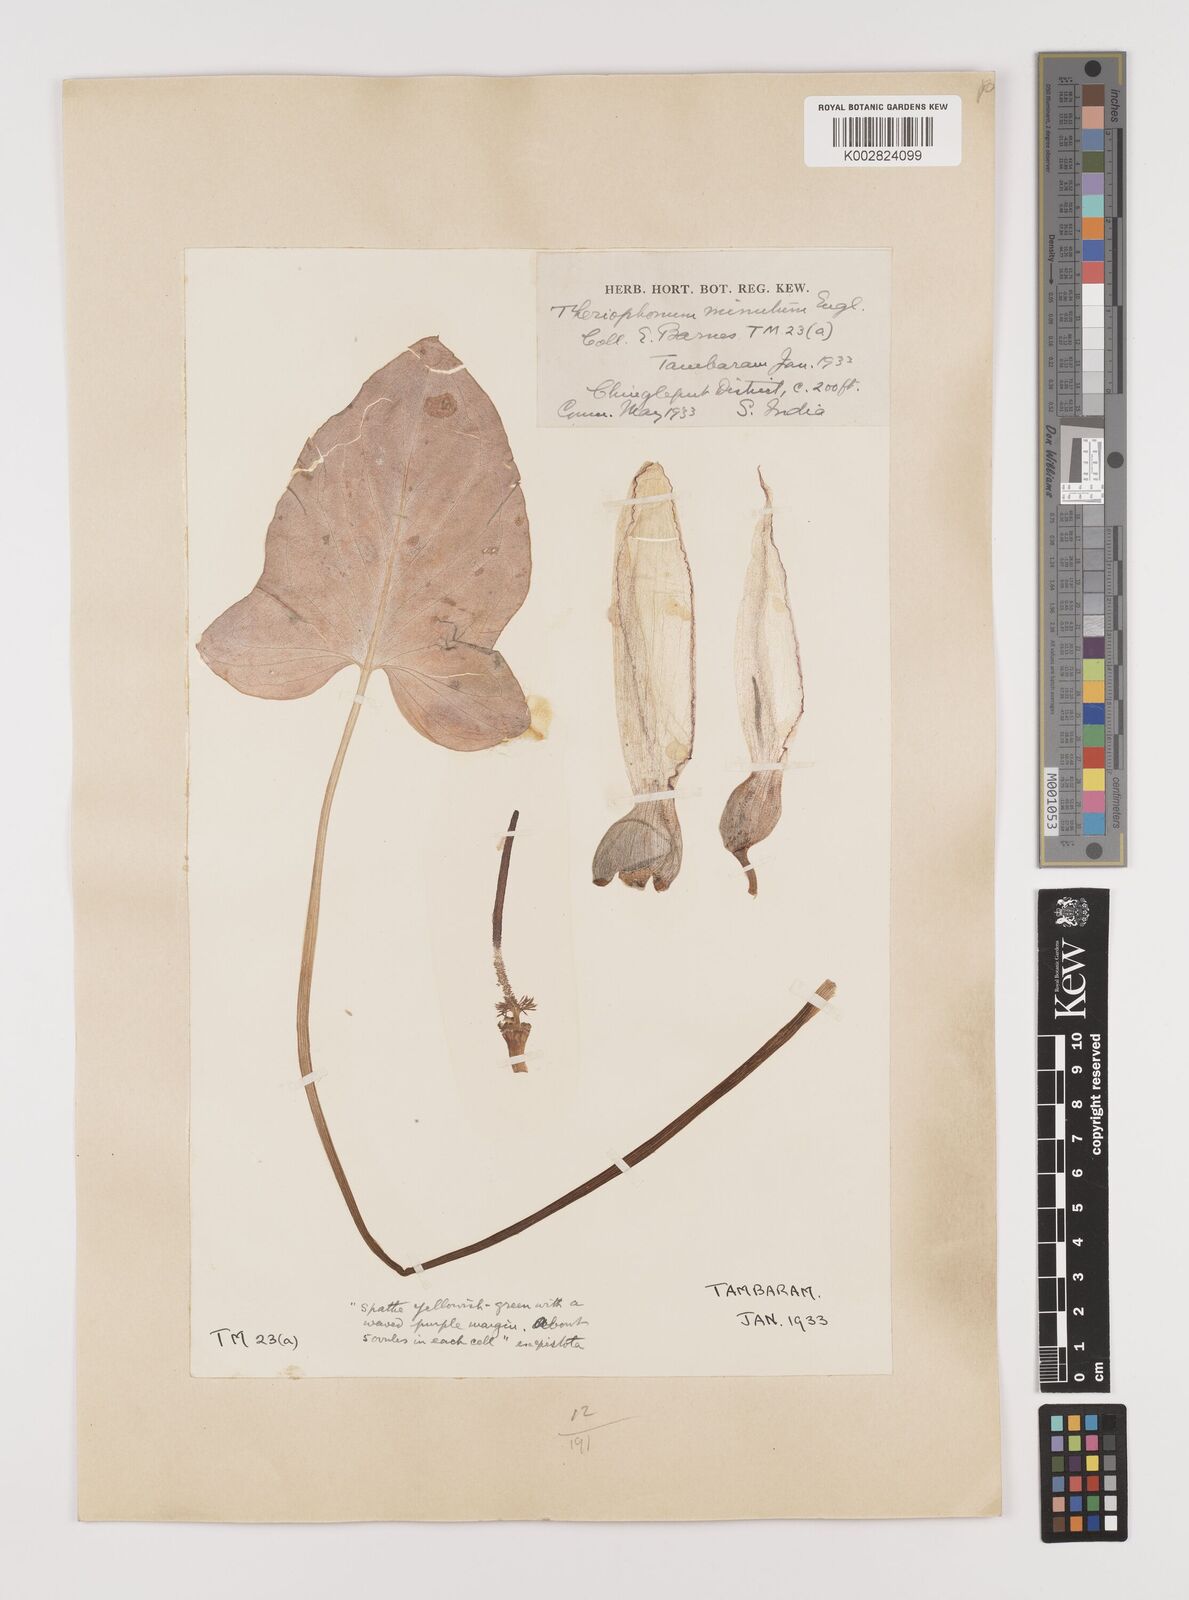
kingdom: Plantae
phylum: Tracheophyta
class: Liliopsida
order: Alismatales
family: Araceae
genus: Theriophonum
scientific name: Theriophonum minutum
